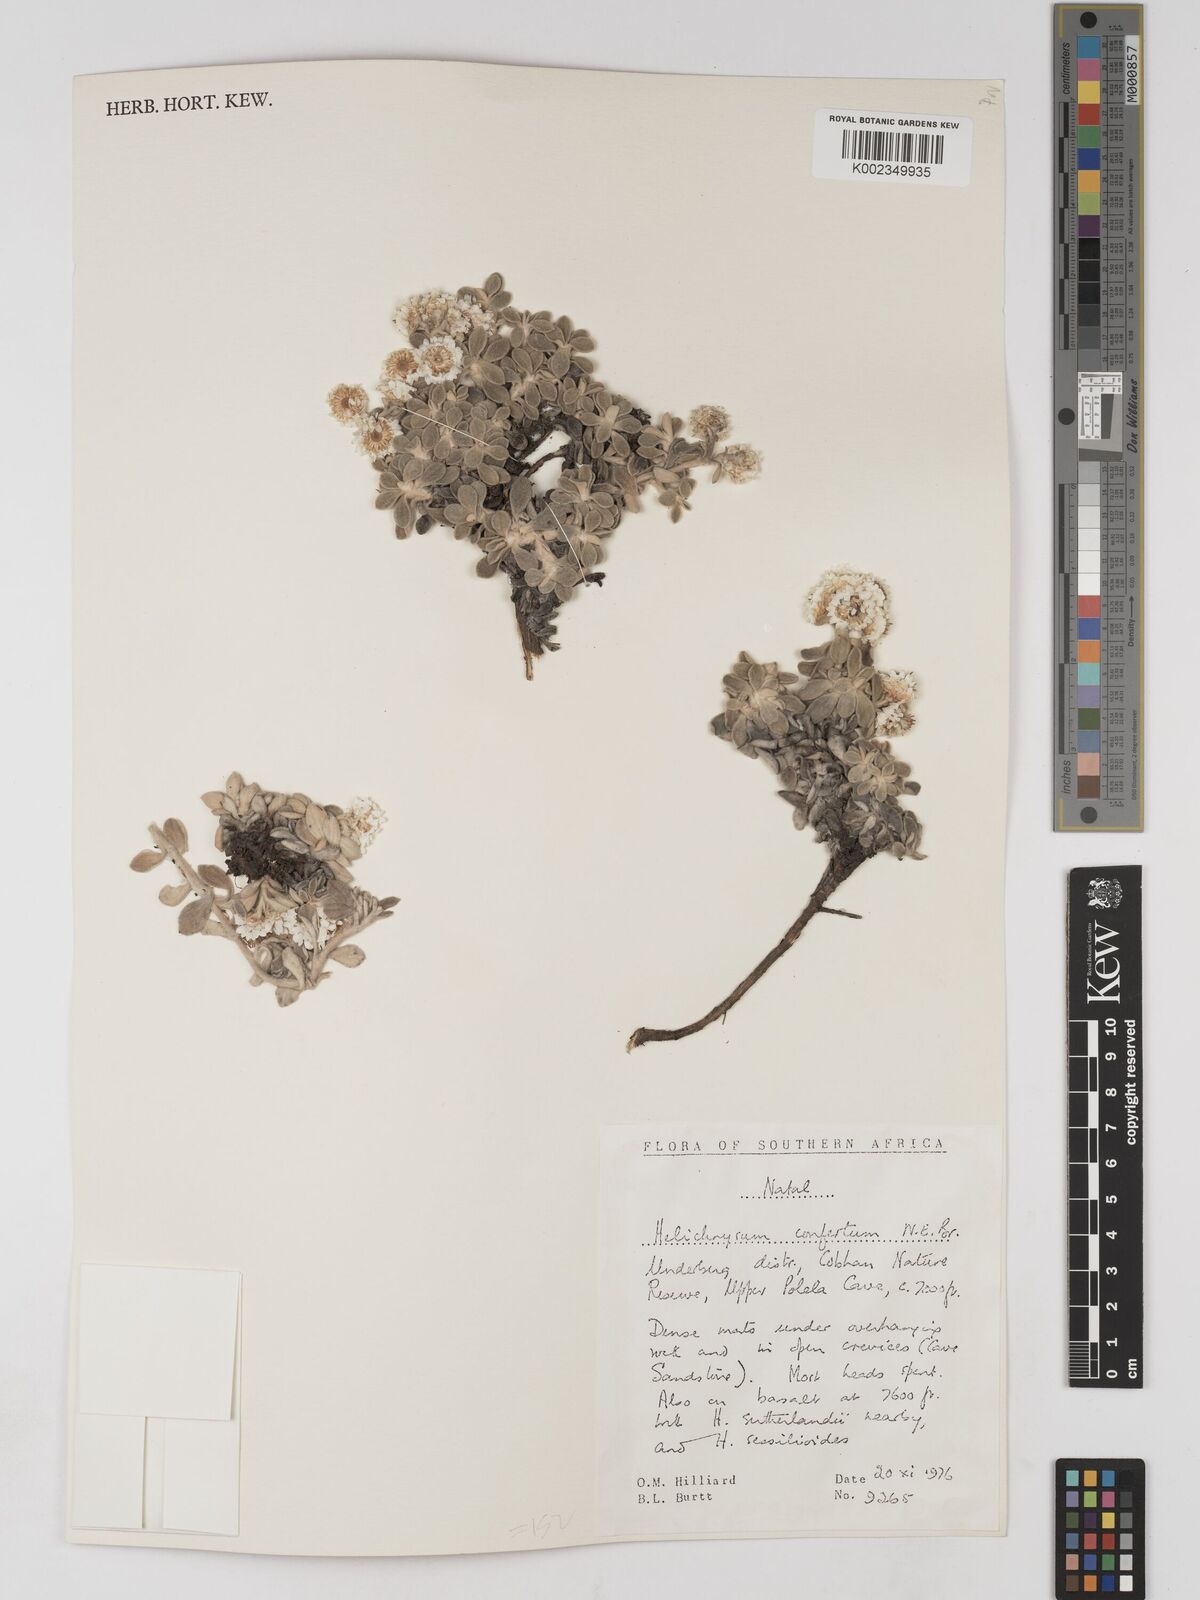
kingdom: Plantae
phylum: Tracheophyta
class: Magnoliopsida
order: Asterales
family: Asteraceae
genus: Helichrysum
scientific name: Helichrysum confertum
